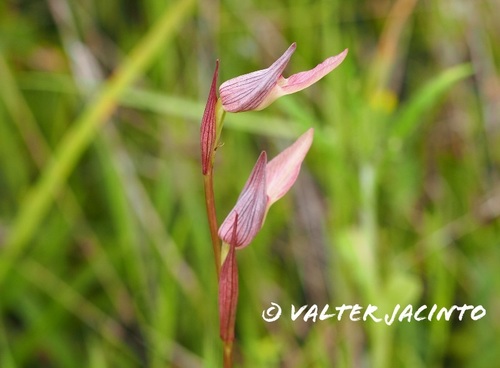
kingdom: Plantae
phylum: Tracheophyta
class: Liliopsida
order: Asparagales
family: Orchidaceae
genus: Serapias
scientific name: Serapias lingua
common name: Tongue-orchid
